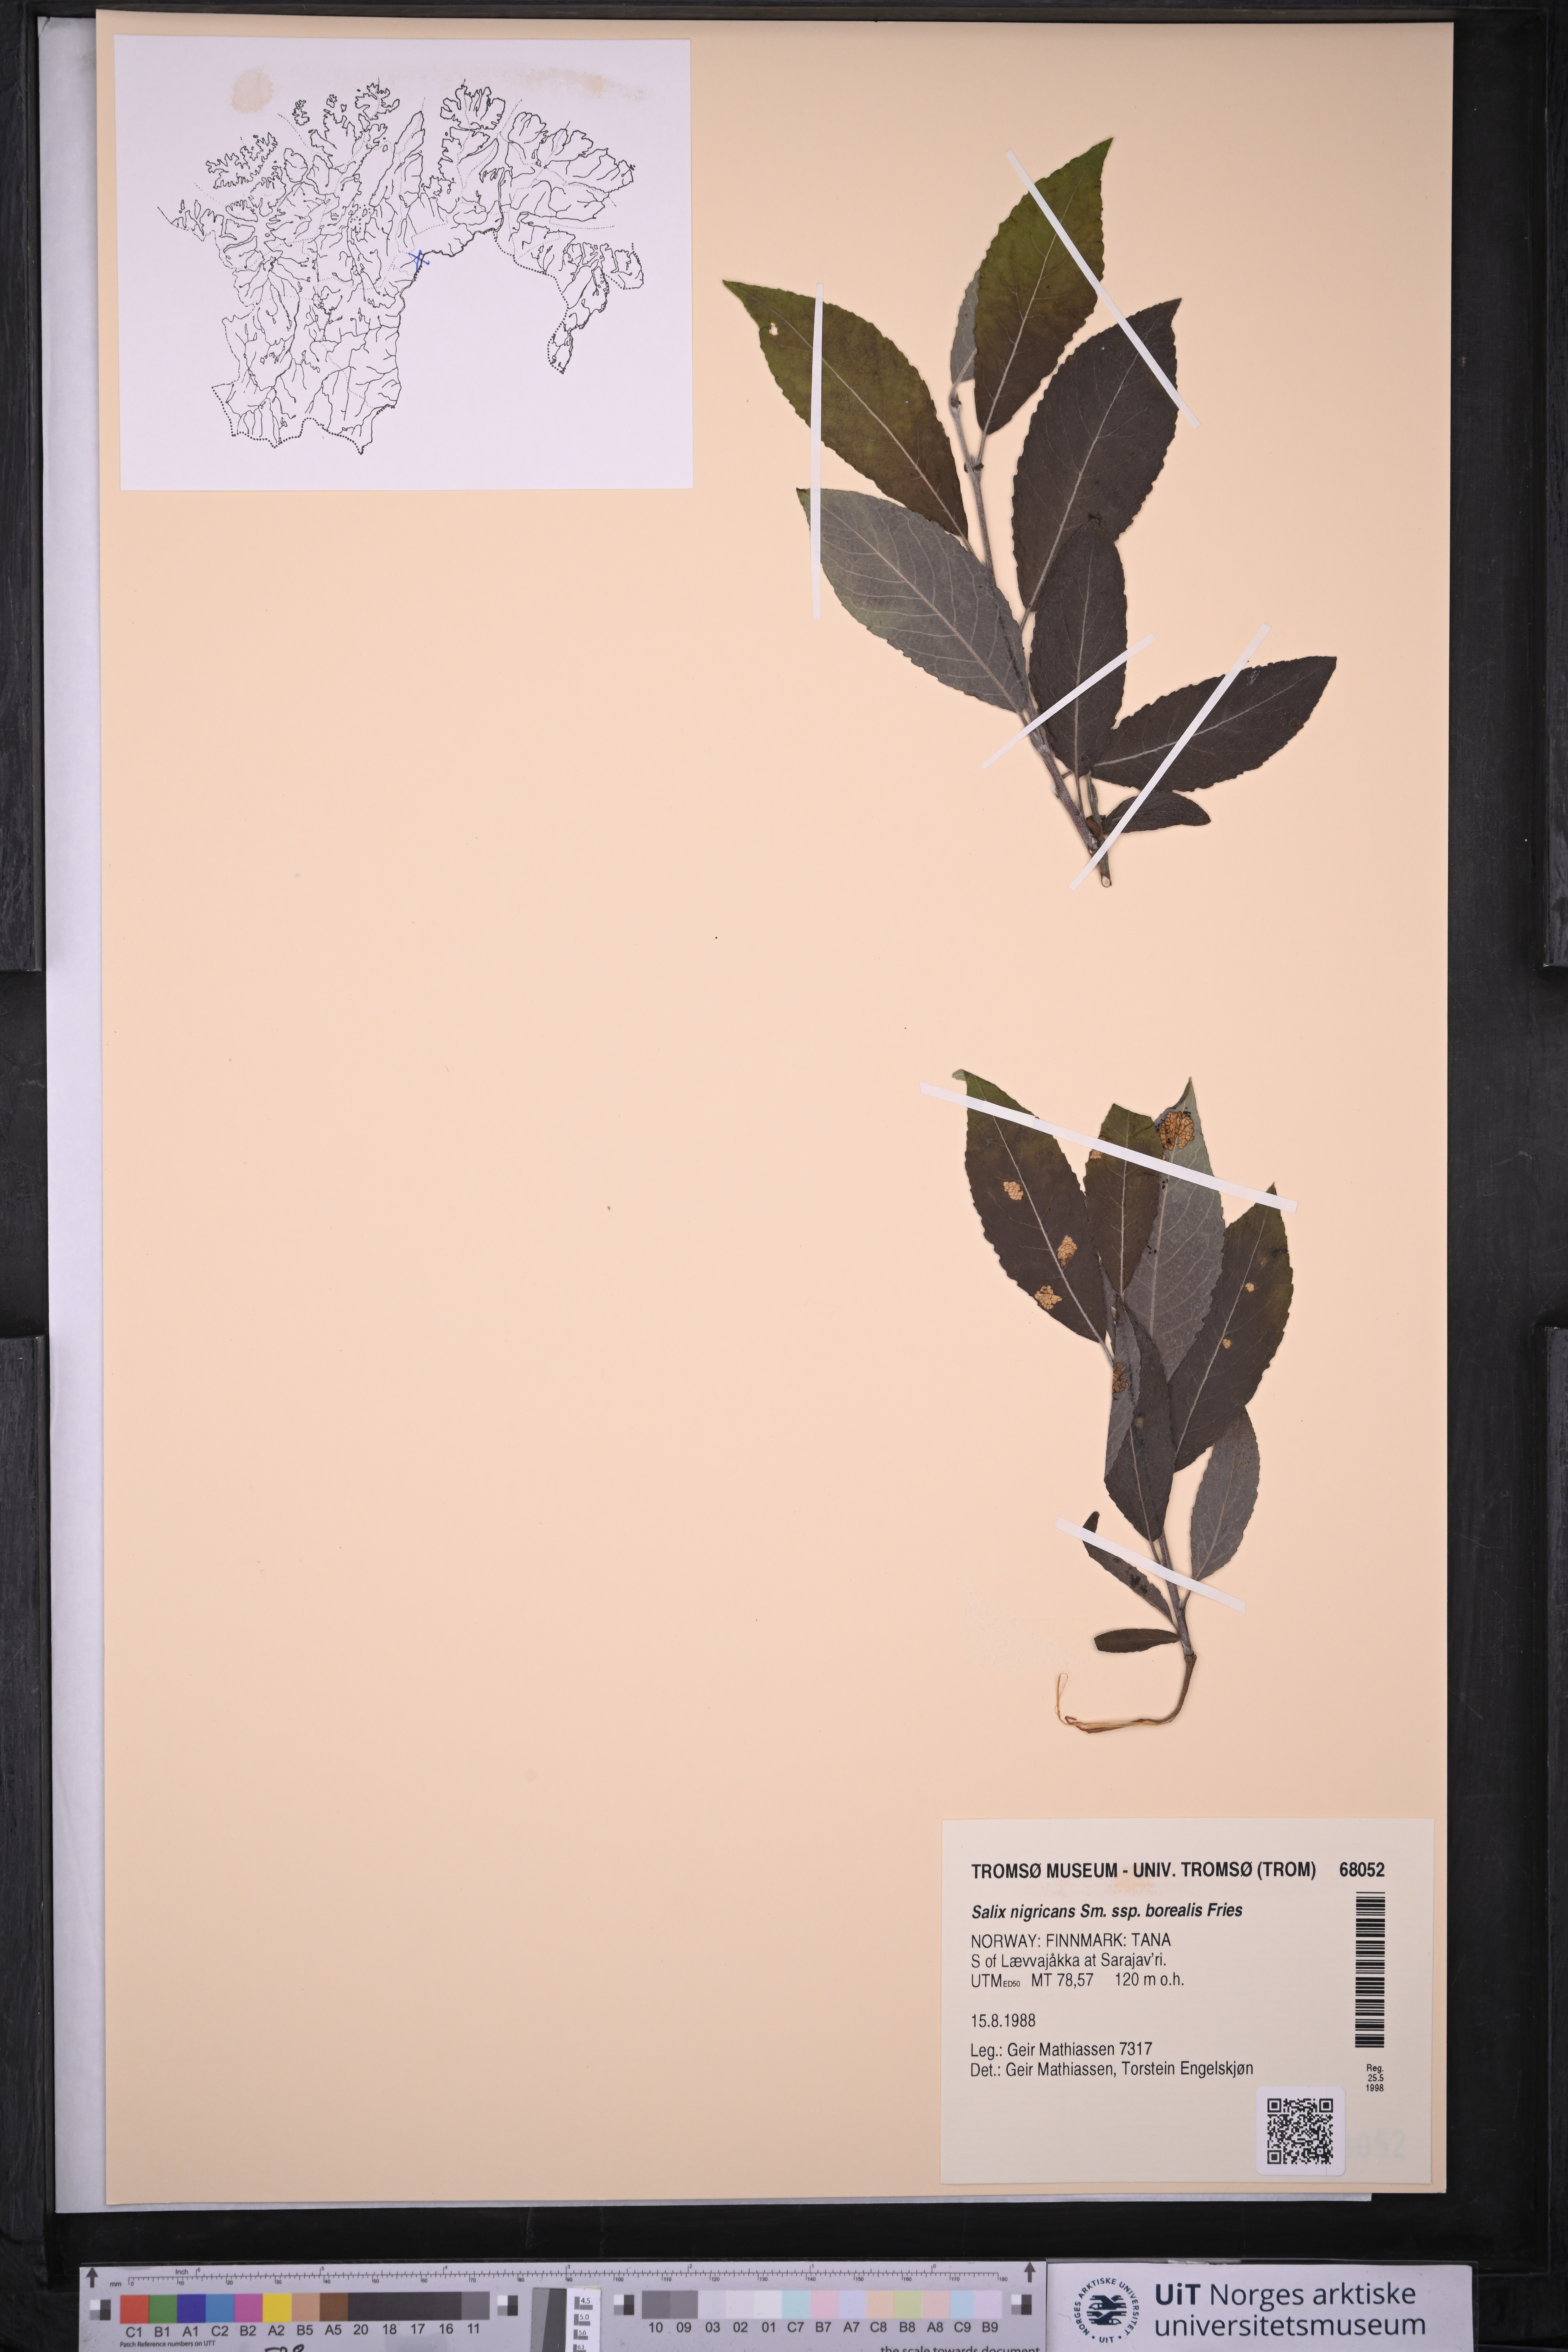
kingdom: Plantae
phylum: Tracheophyta
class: Magnoliopsida
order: Malpighiales
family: Salicaceae
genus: Salix
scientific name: Salix myrsinifolia
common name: Dark-leaved willow
